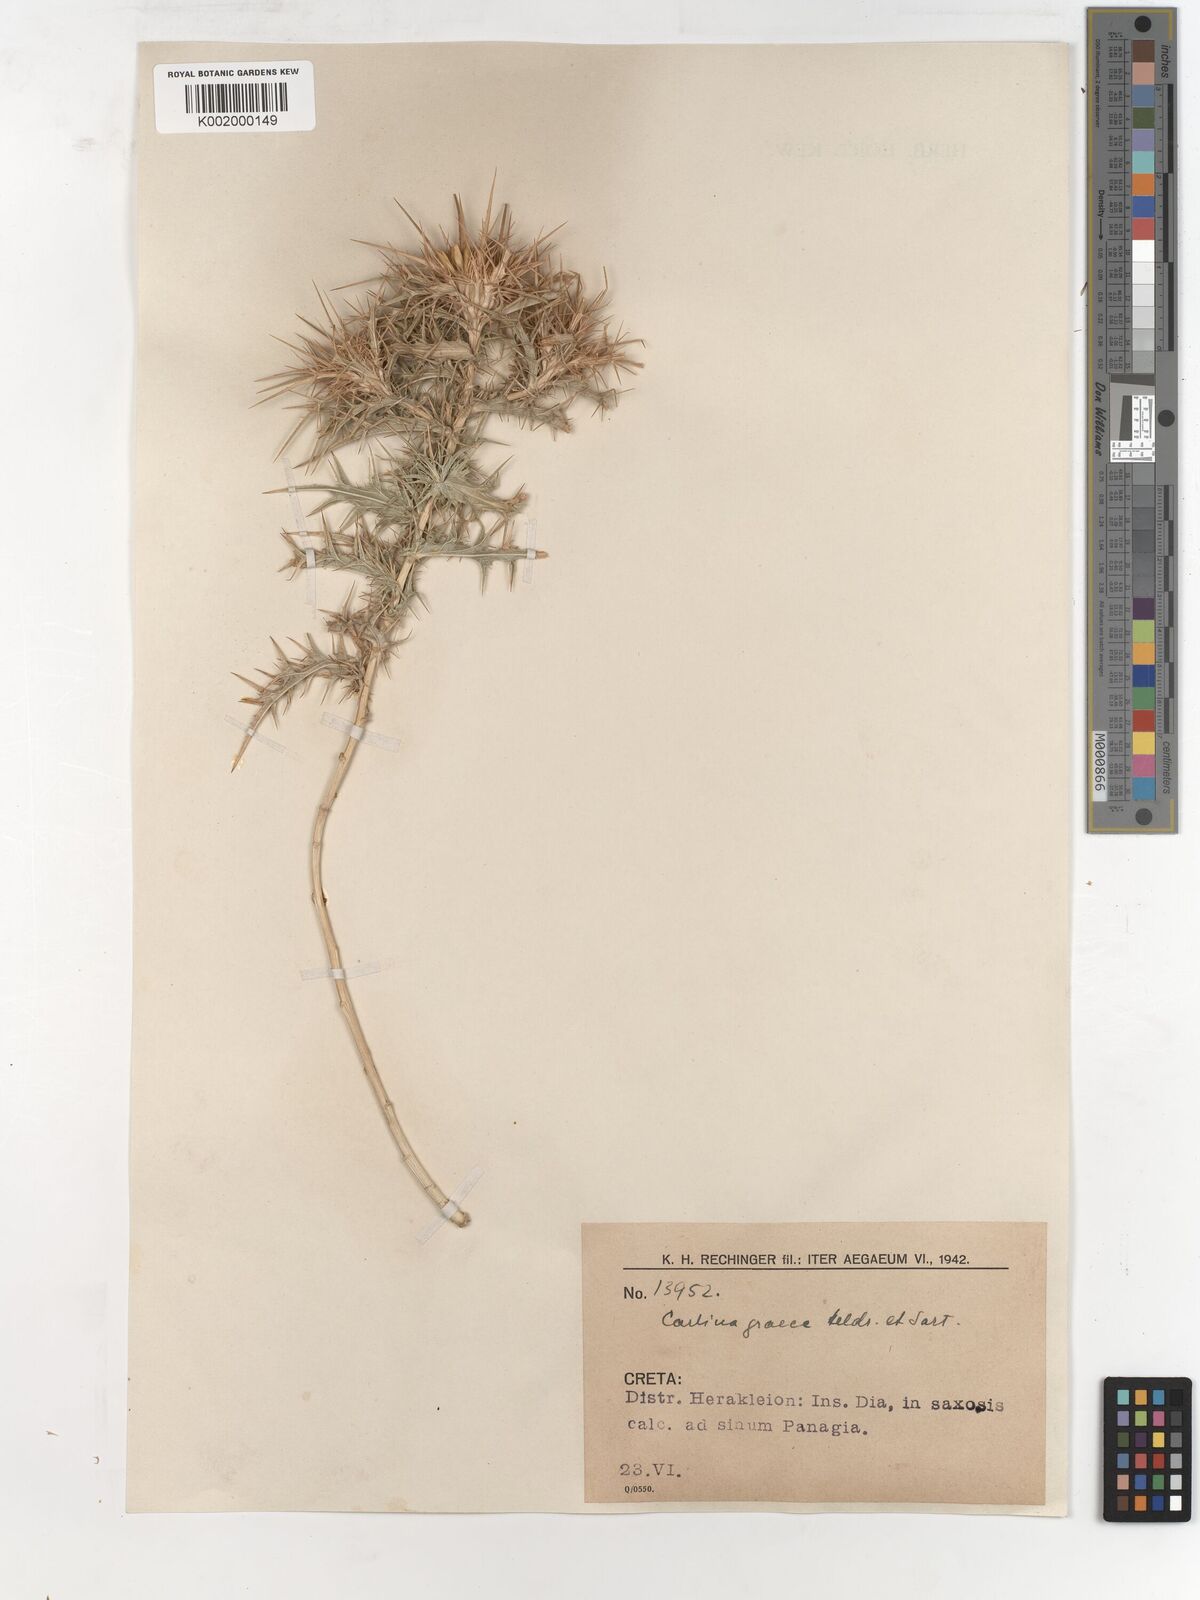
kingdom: Plantae
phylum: Tracheophyta
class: Magnoliopsida
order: Asterales
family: Asteraceae
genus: Carlina
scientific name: Carlina corymbosa
